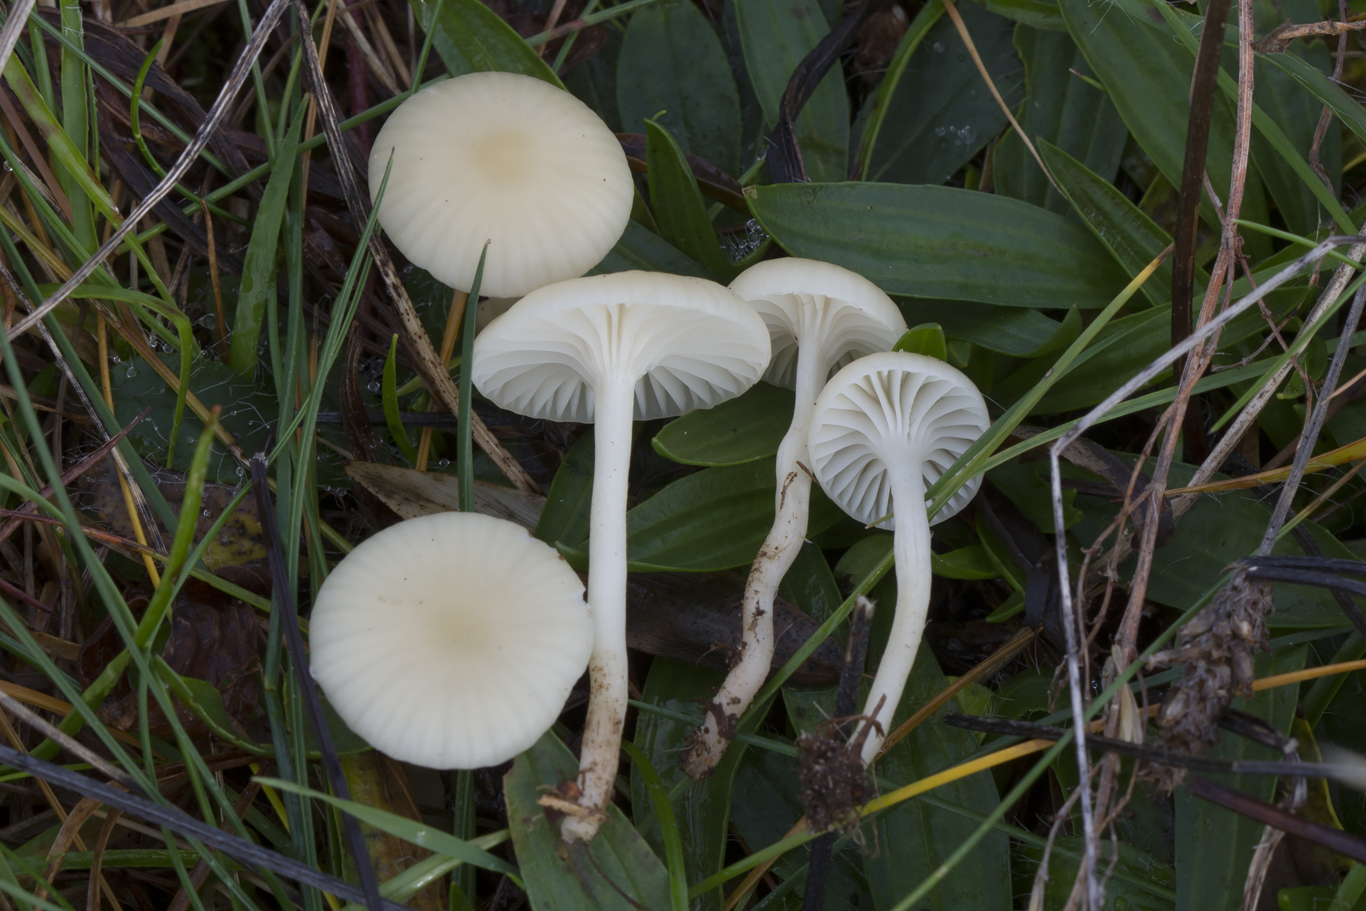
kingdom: Fungi
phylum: Basidiomycota
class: Agaricomycetes
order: Agaricales
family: Hygrophoraceae
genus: Cuphophyllus
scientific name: Cuphophyllus russocoriaceus
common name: ruslæder-vokshat
